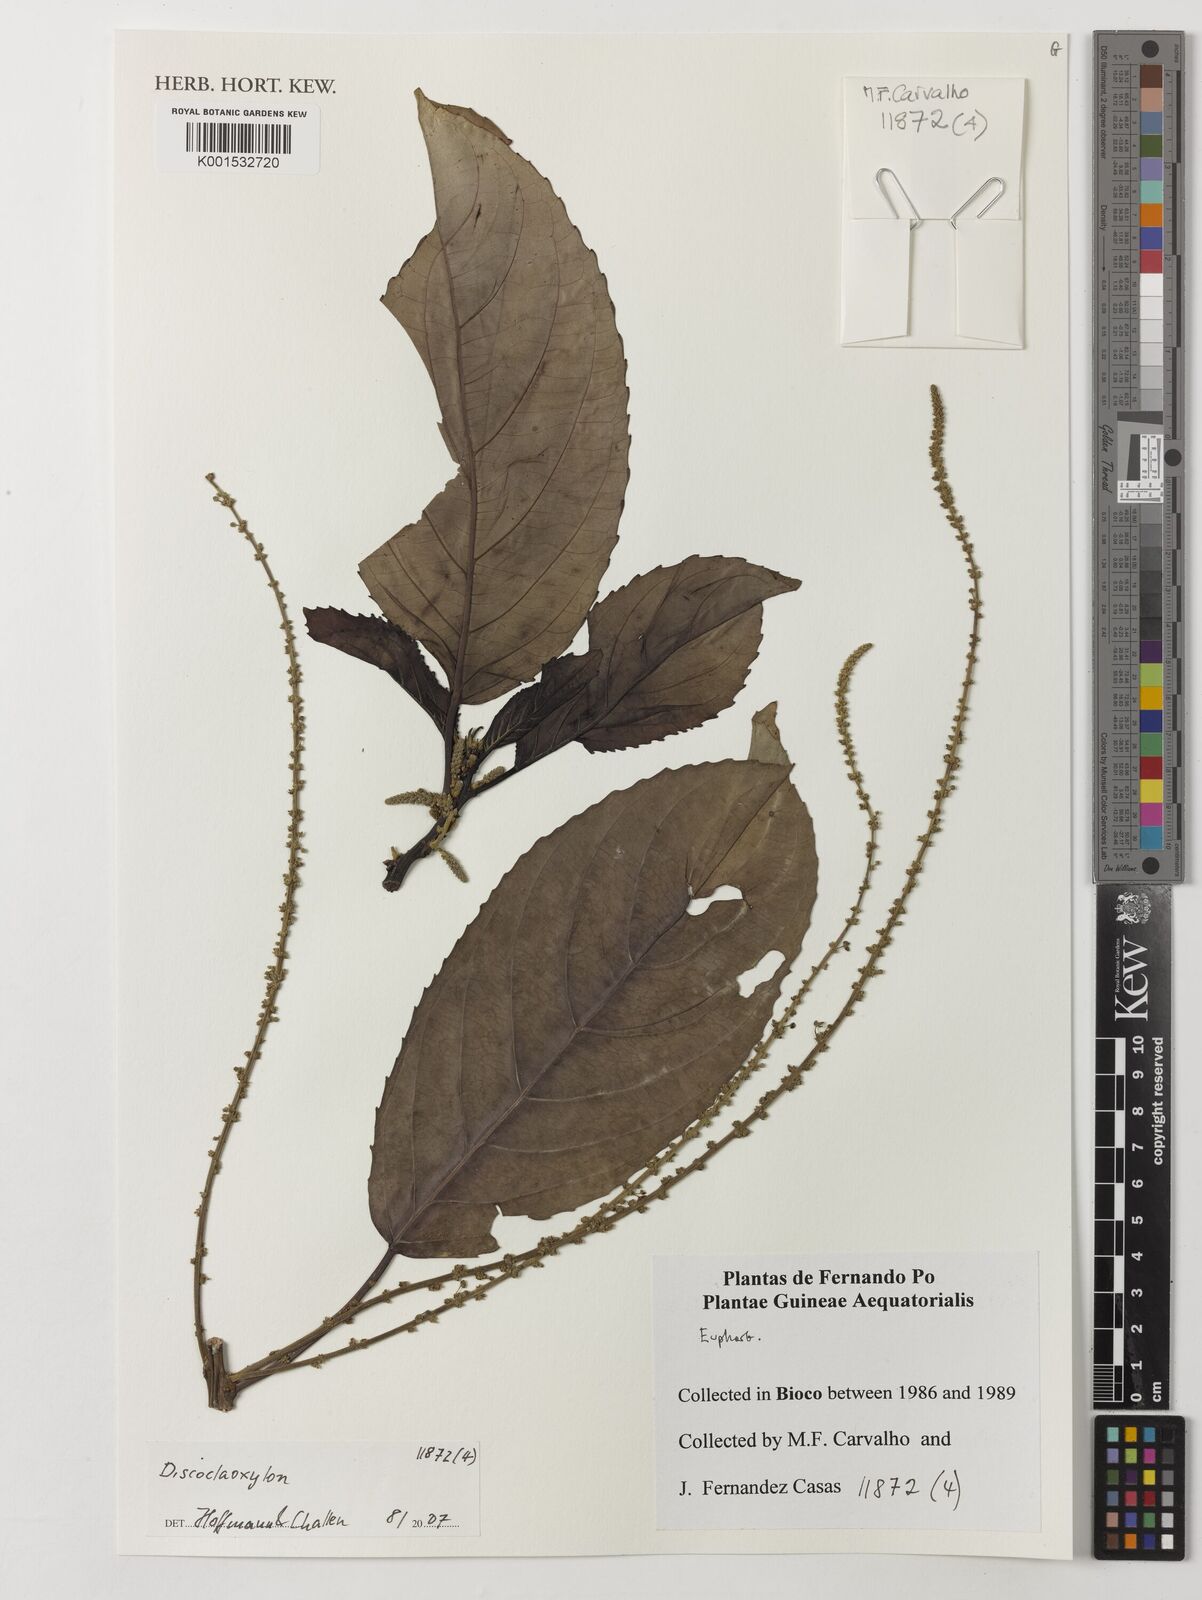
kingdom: Plantae
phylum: Tracheophyta
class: Magnoliopsida
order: Malpighiales
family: Euphorbiaceae
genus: Discoclaoxylon
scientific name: Discoclaoxylon
